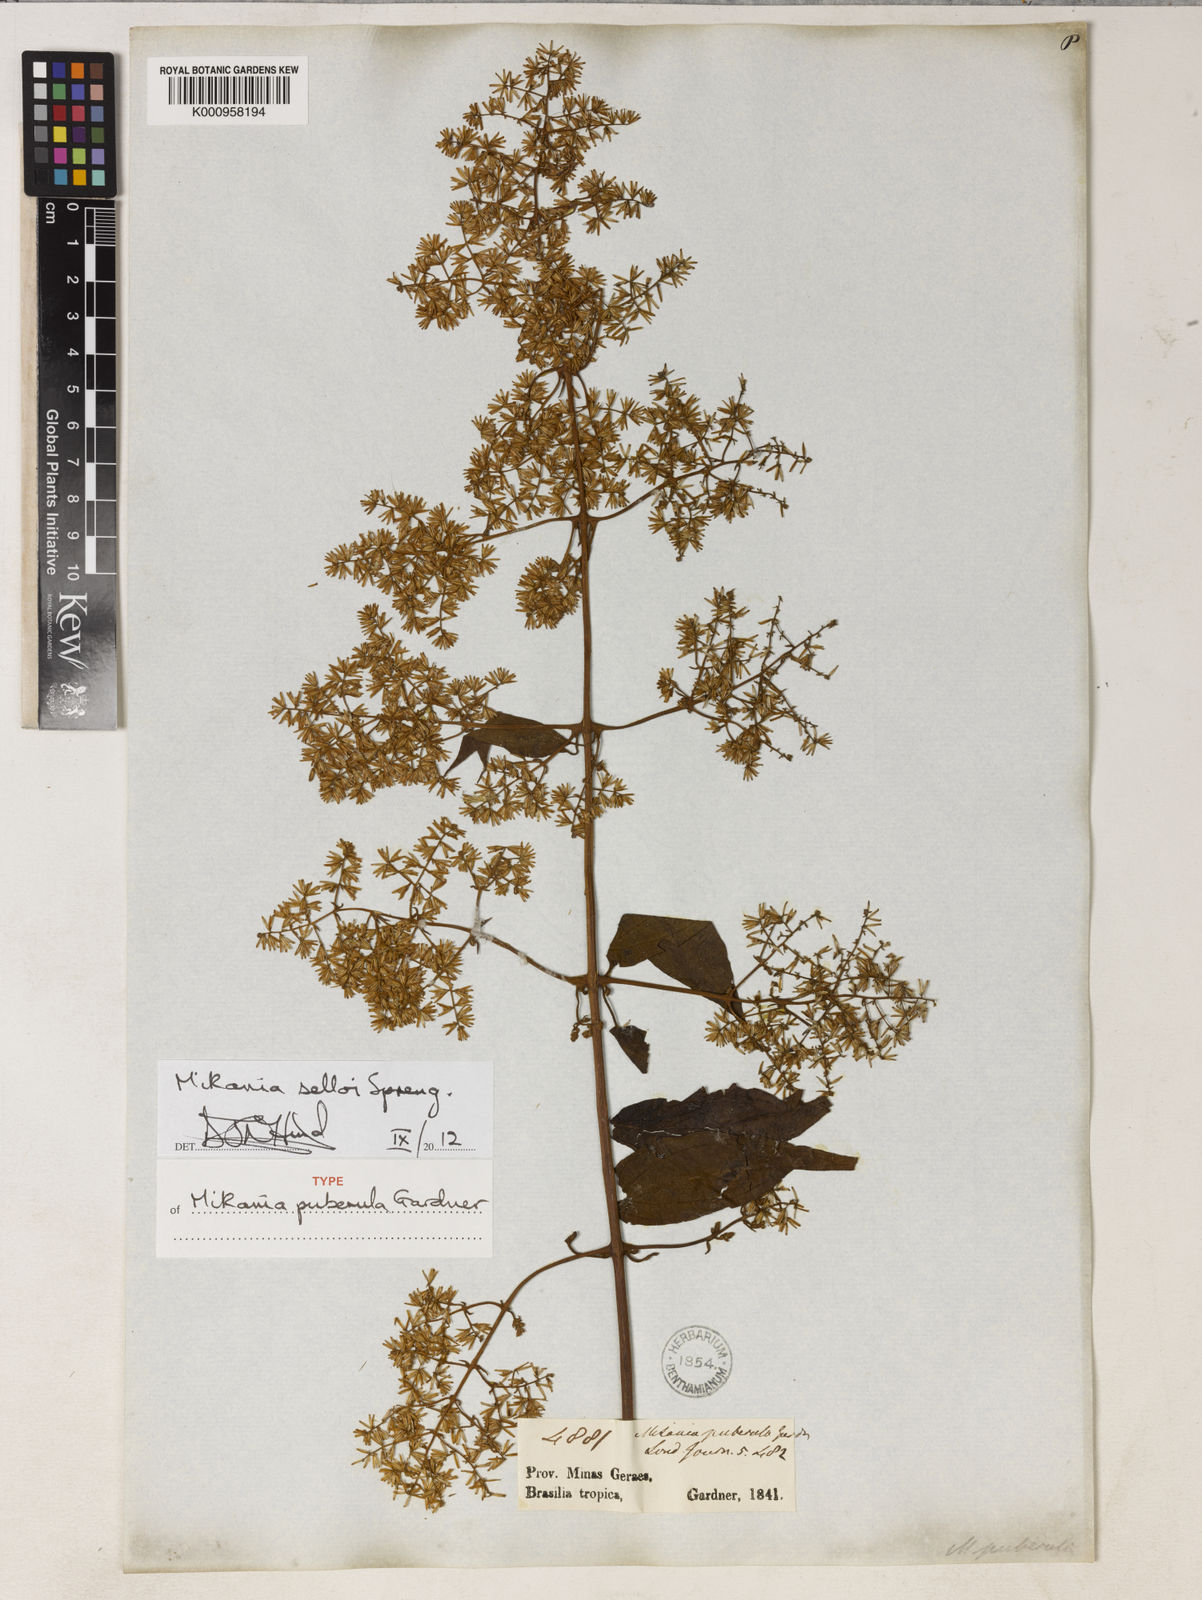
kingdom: Plantae
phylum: Tracheophyta
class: Magnoliopsida
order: Asterales
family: Asteraceae
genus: Mikania
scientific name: Mikania selloi
